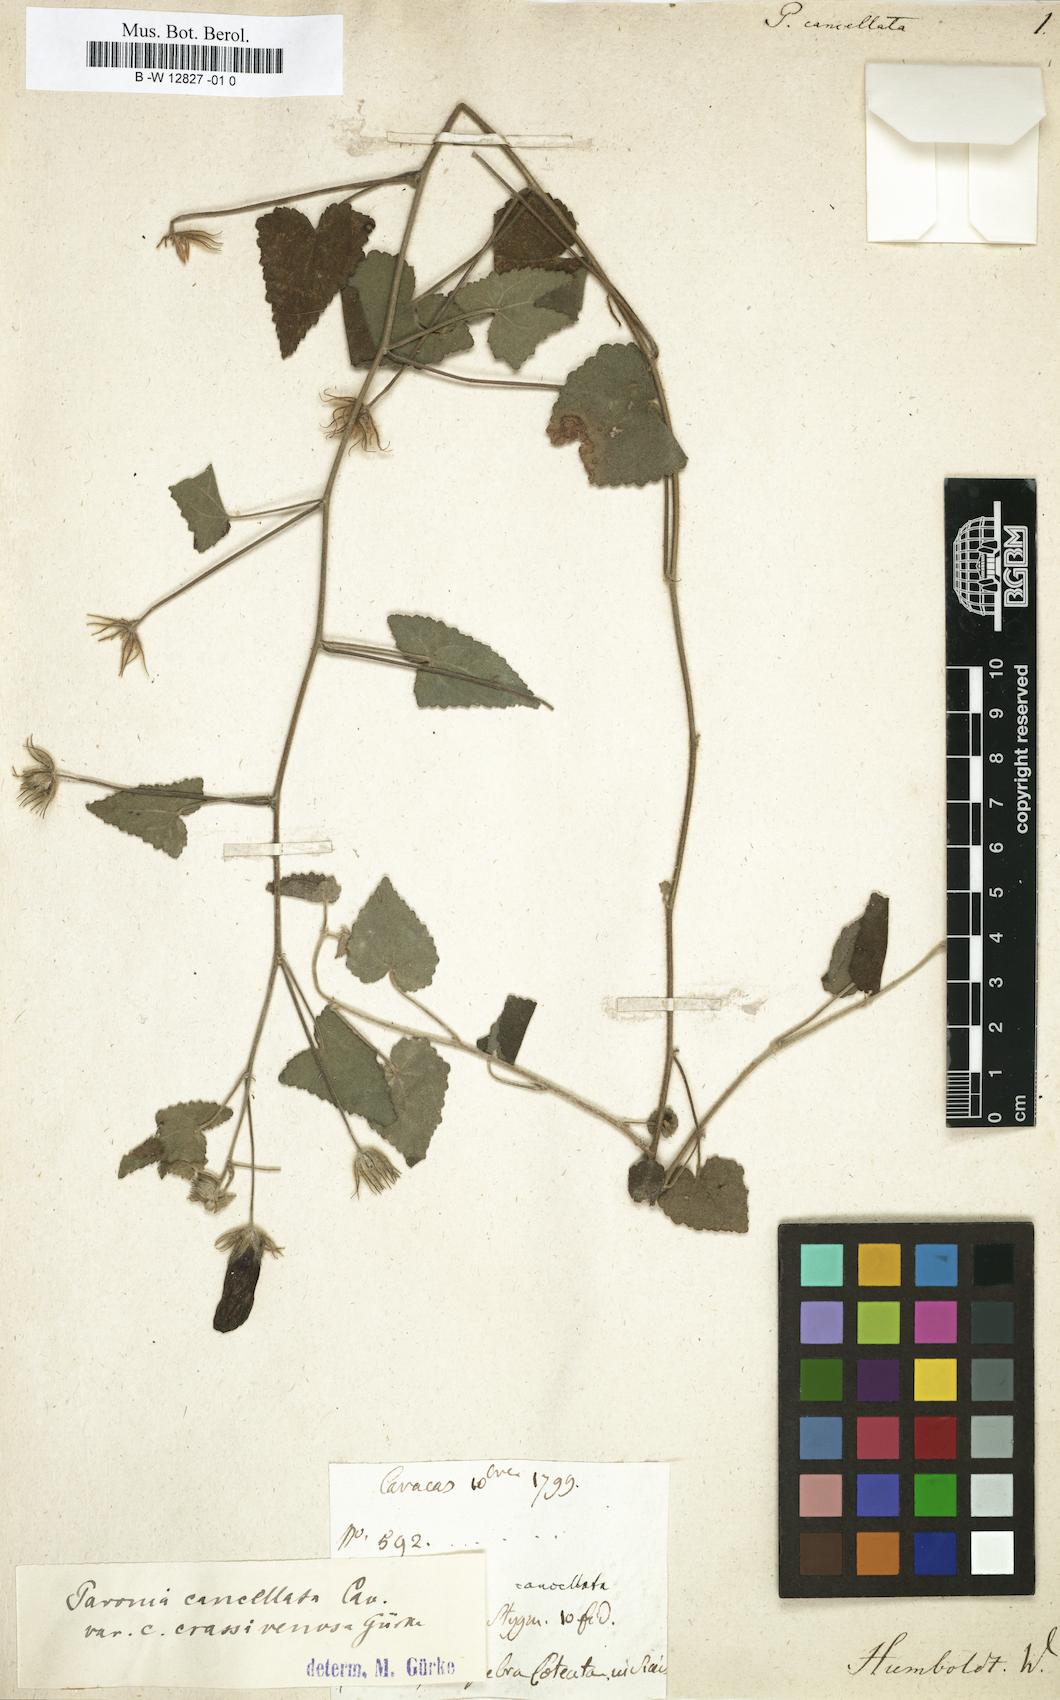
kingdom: Plantae
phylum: Tracheophyta
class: Magnoliopsida
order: Malvales
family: Malvaceae
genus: Pavonia
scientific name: Pavonia cancellata
